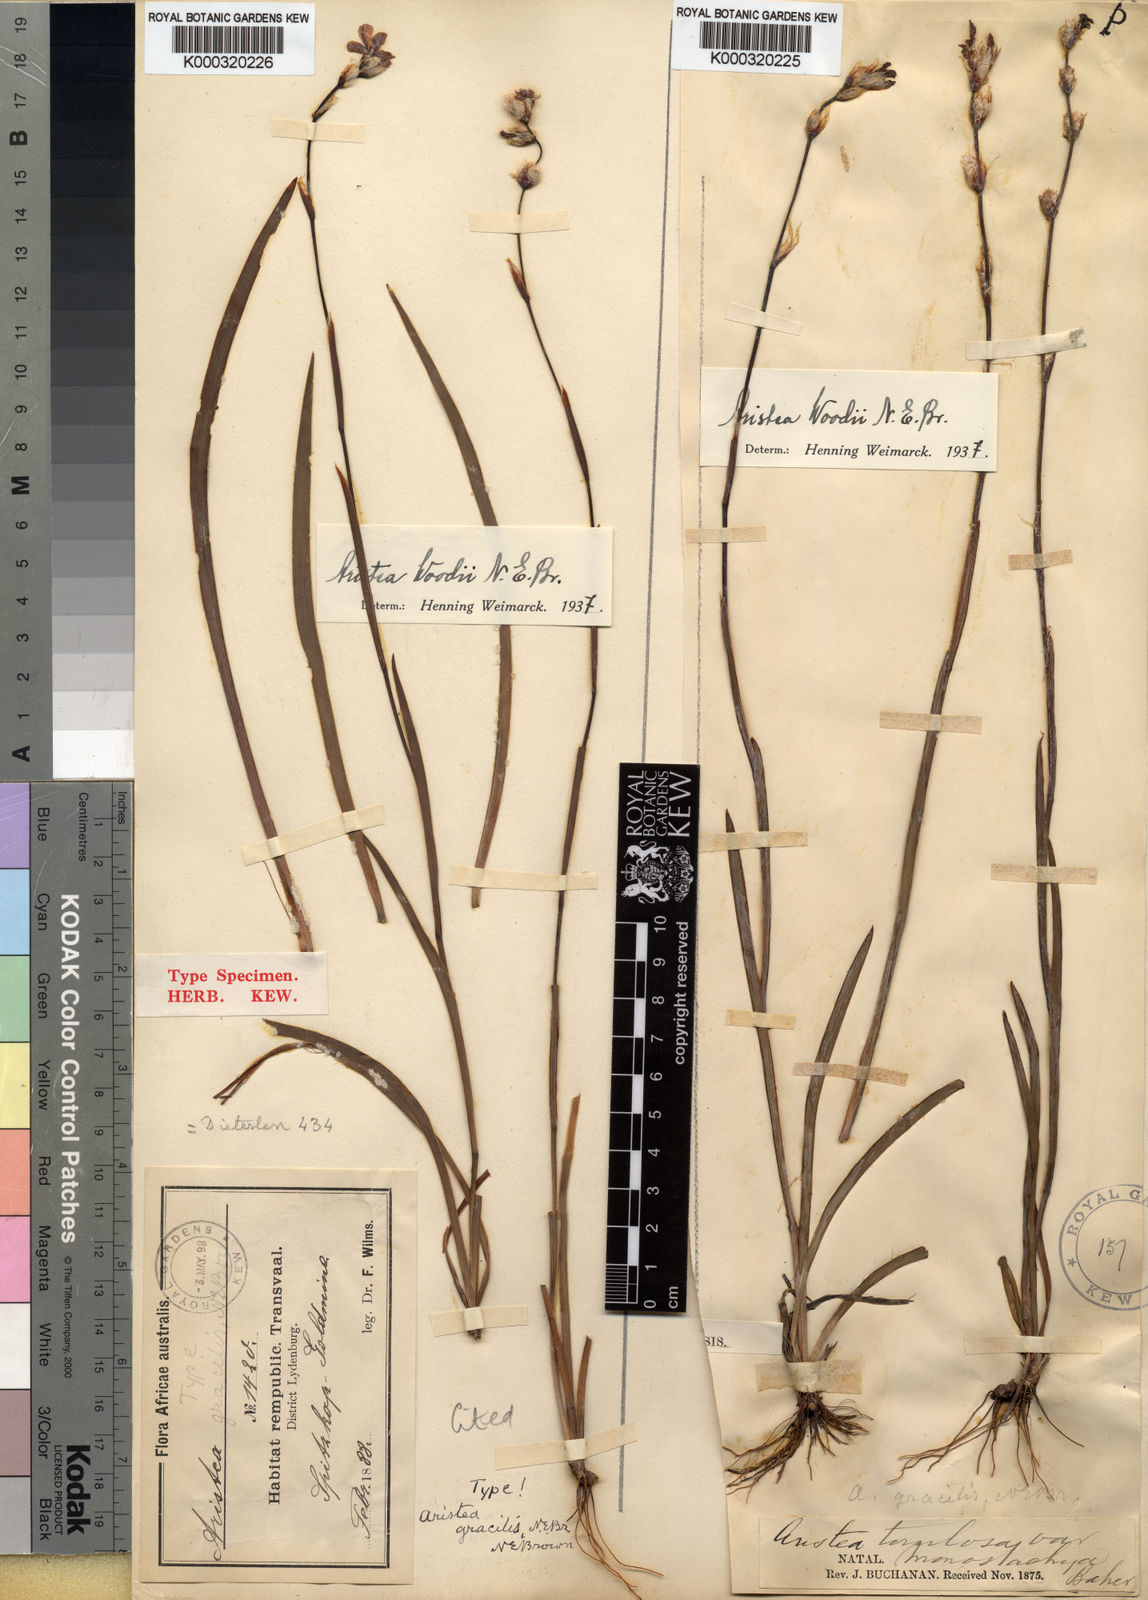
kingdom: Plantae
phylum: Tracheophyta
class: Liliopsida
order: Asparagales
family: Iridaceae
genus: Aristea
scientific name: Aristea torulosa
